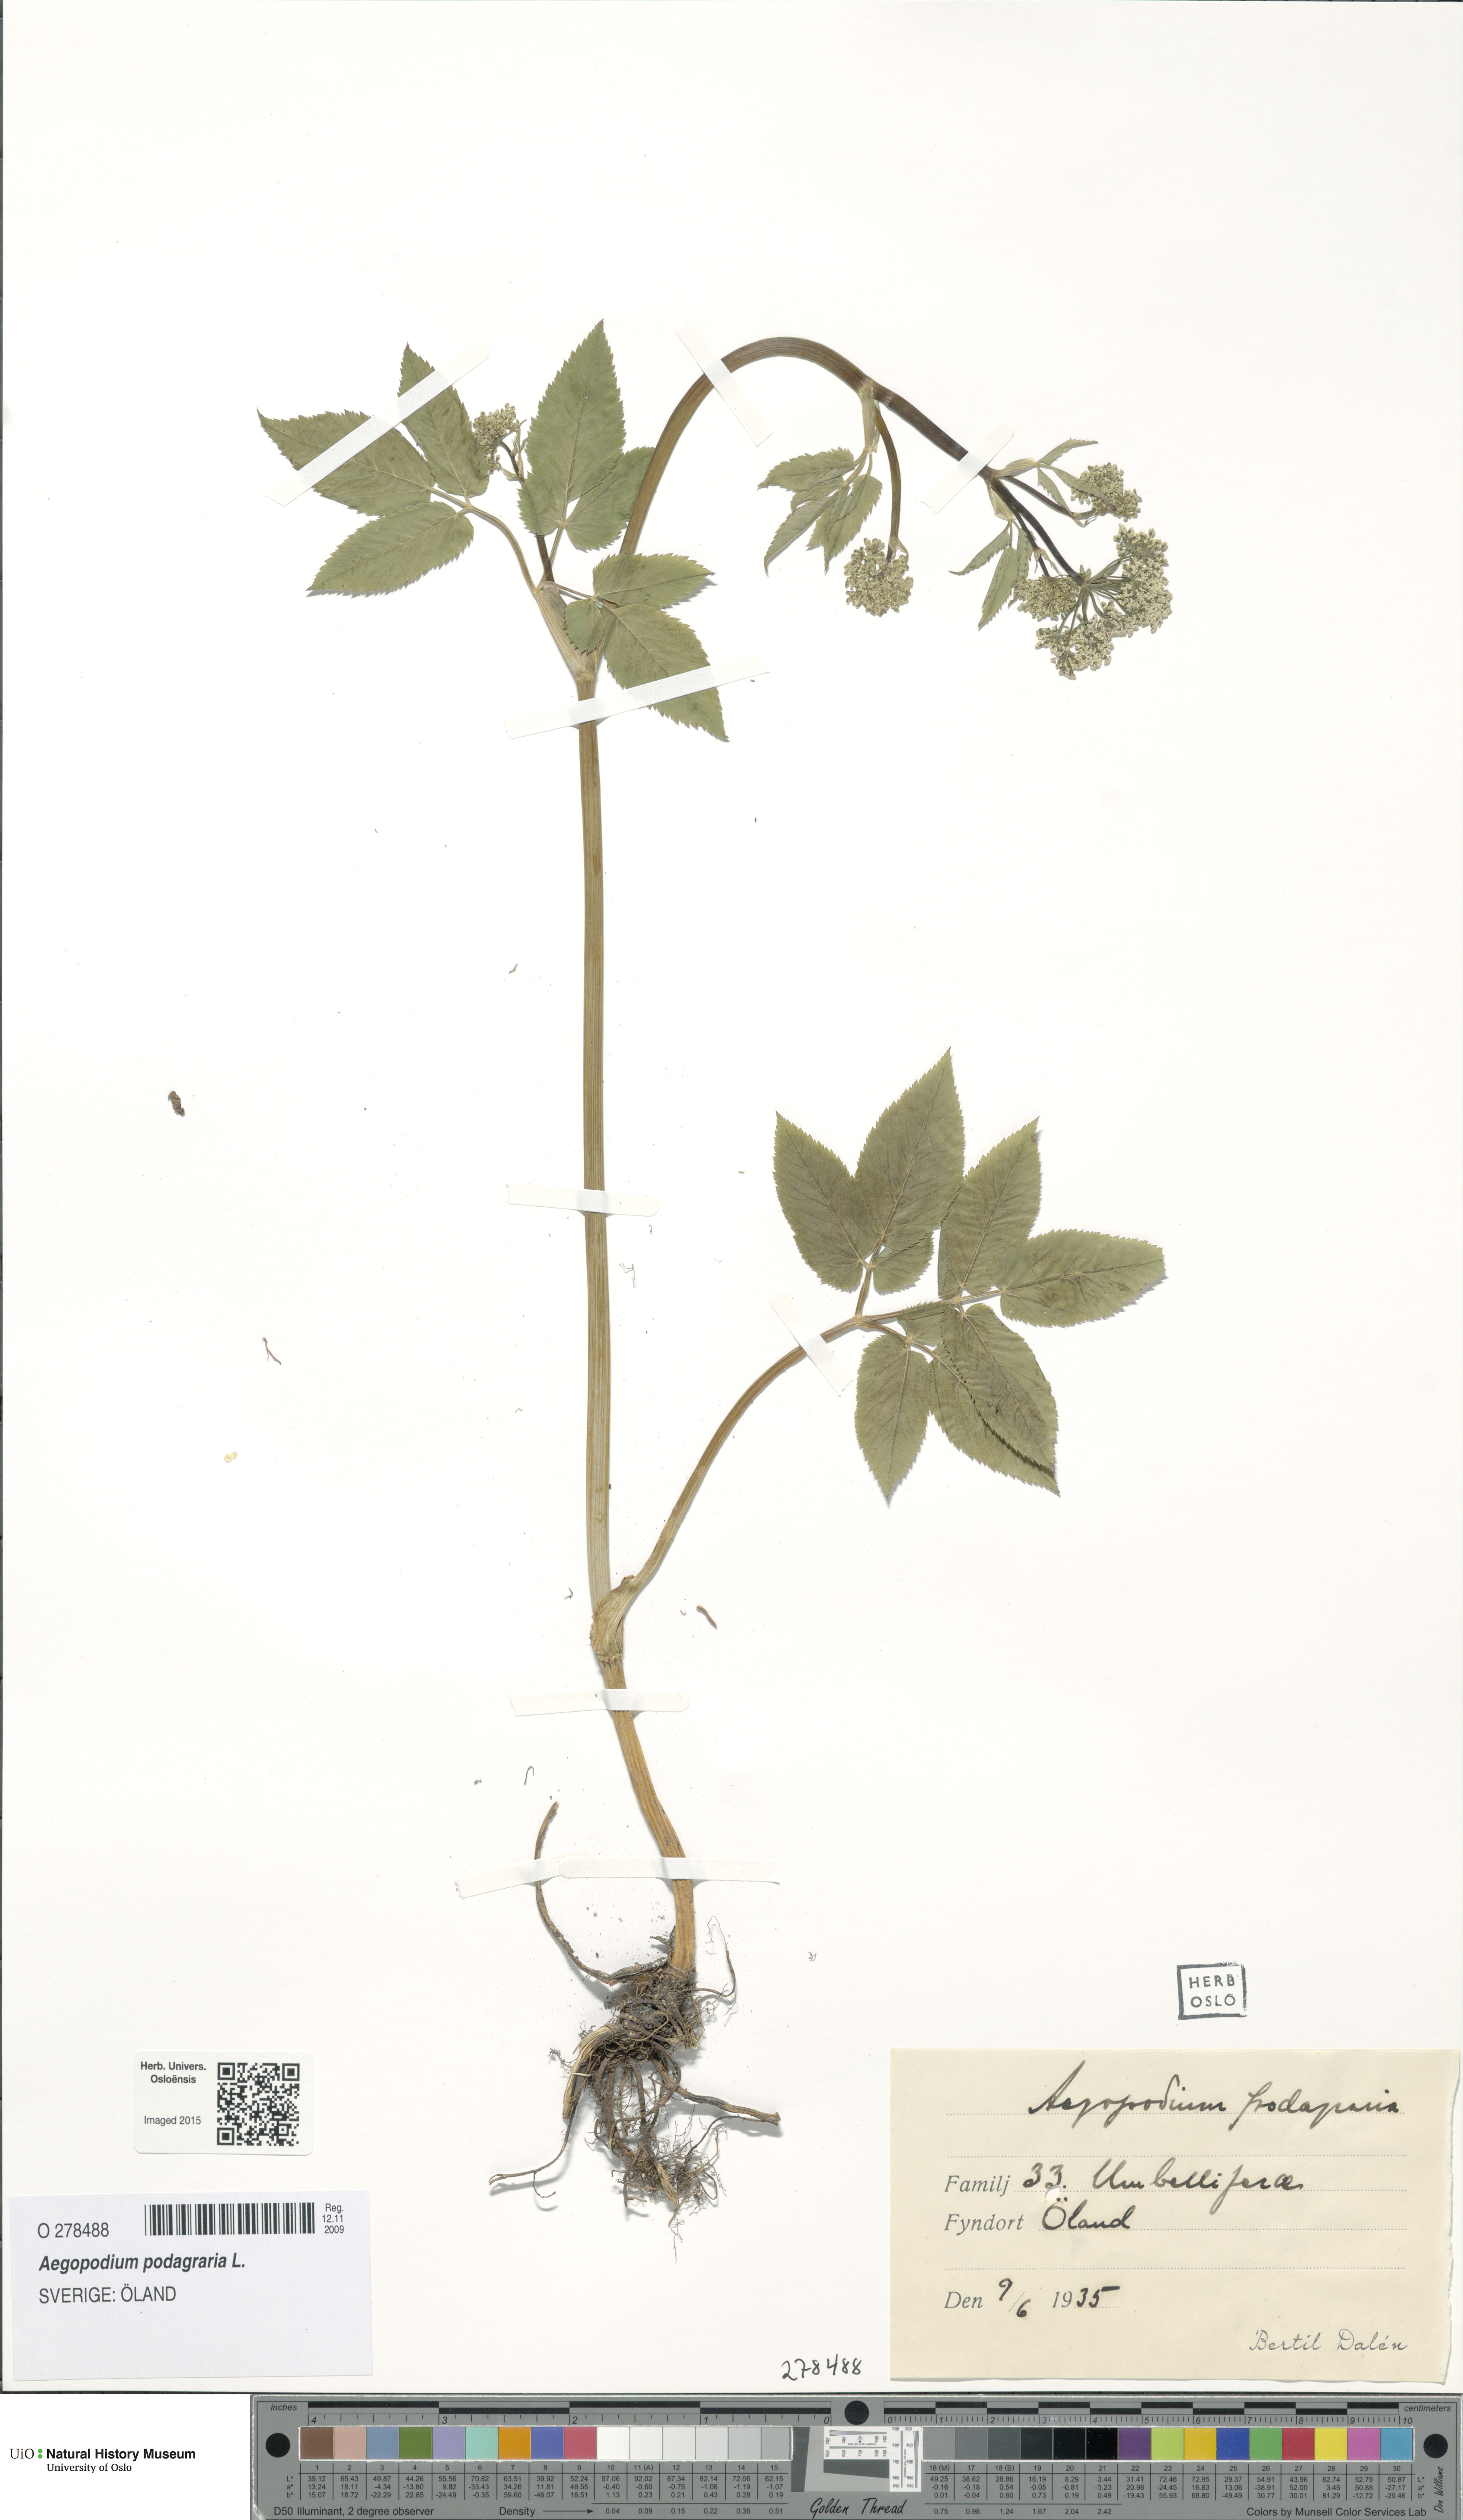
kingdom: Plantae
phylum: Tracheophyta
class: Magnoliopsida
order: Apiales
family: Apiaceae
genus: Aegopodium
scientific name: Aegopodium podagraria
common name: Ground-elder
